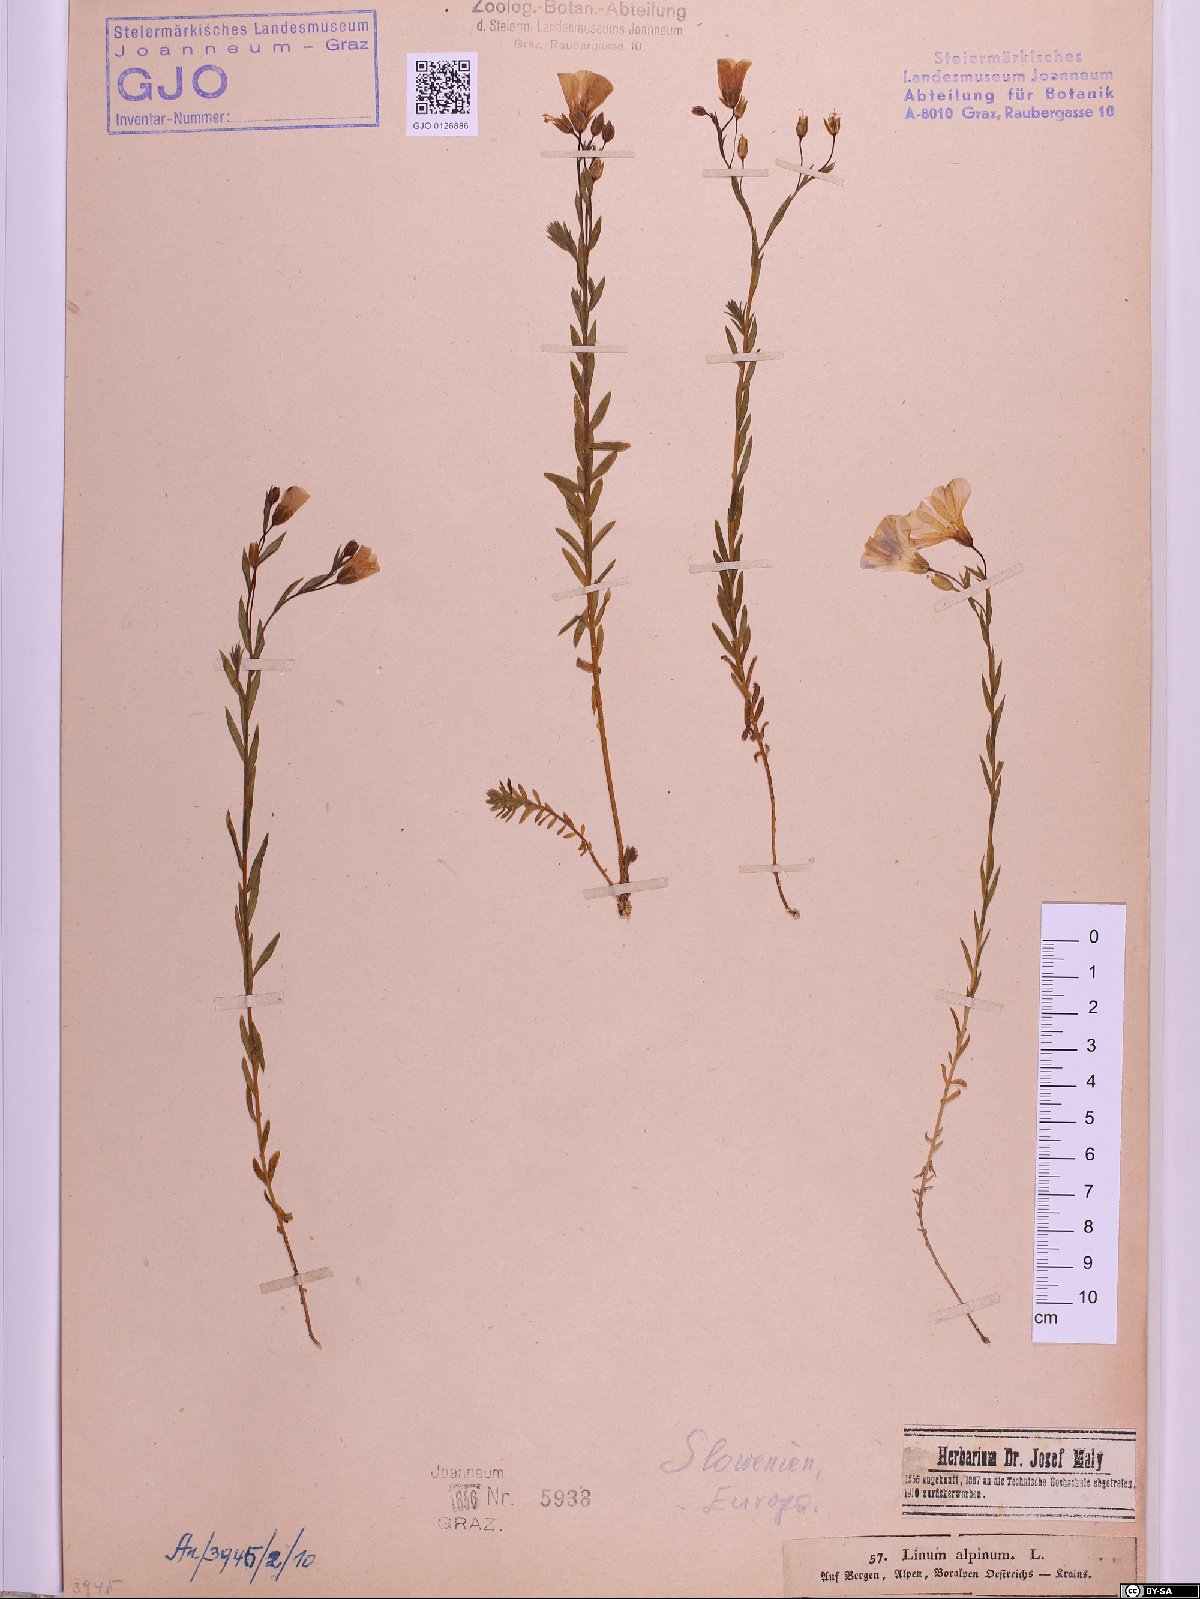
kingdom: Plantae
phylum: Tracheophyta
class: Magnoliopsida
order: Malpighiales
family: Linaceae
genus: Linum
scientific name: Linum alpinum
